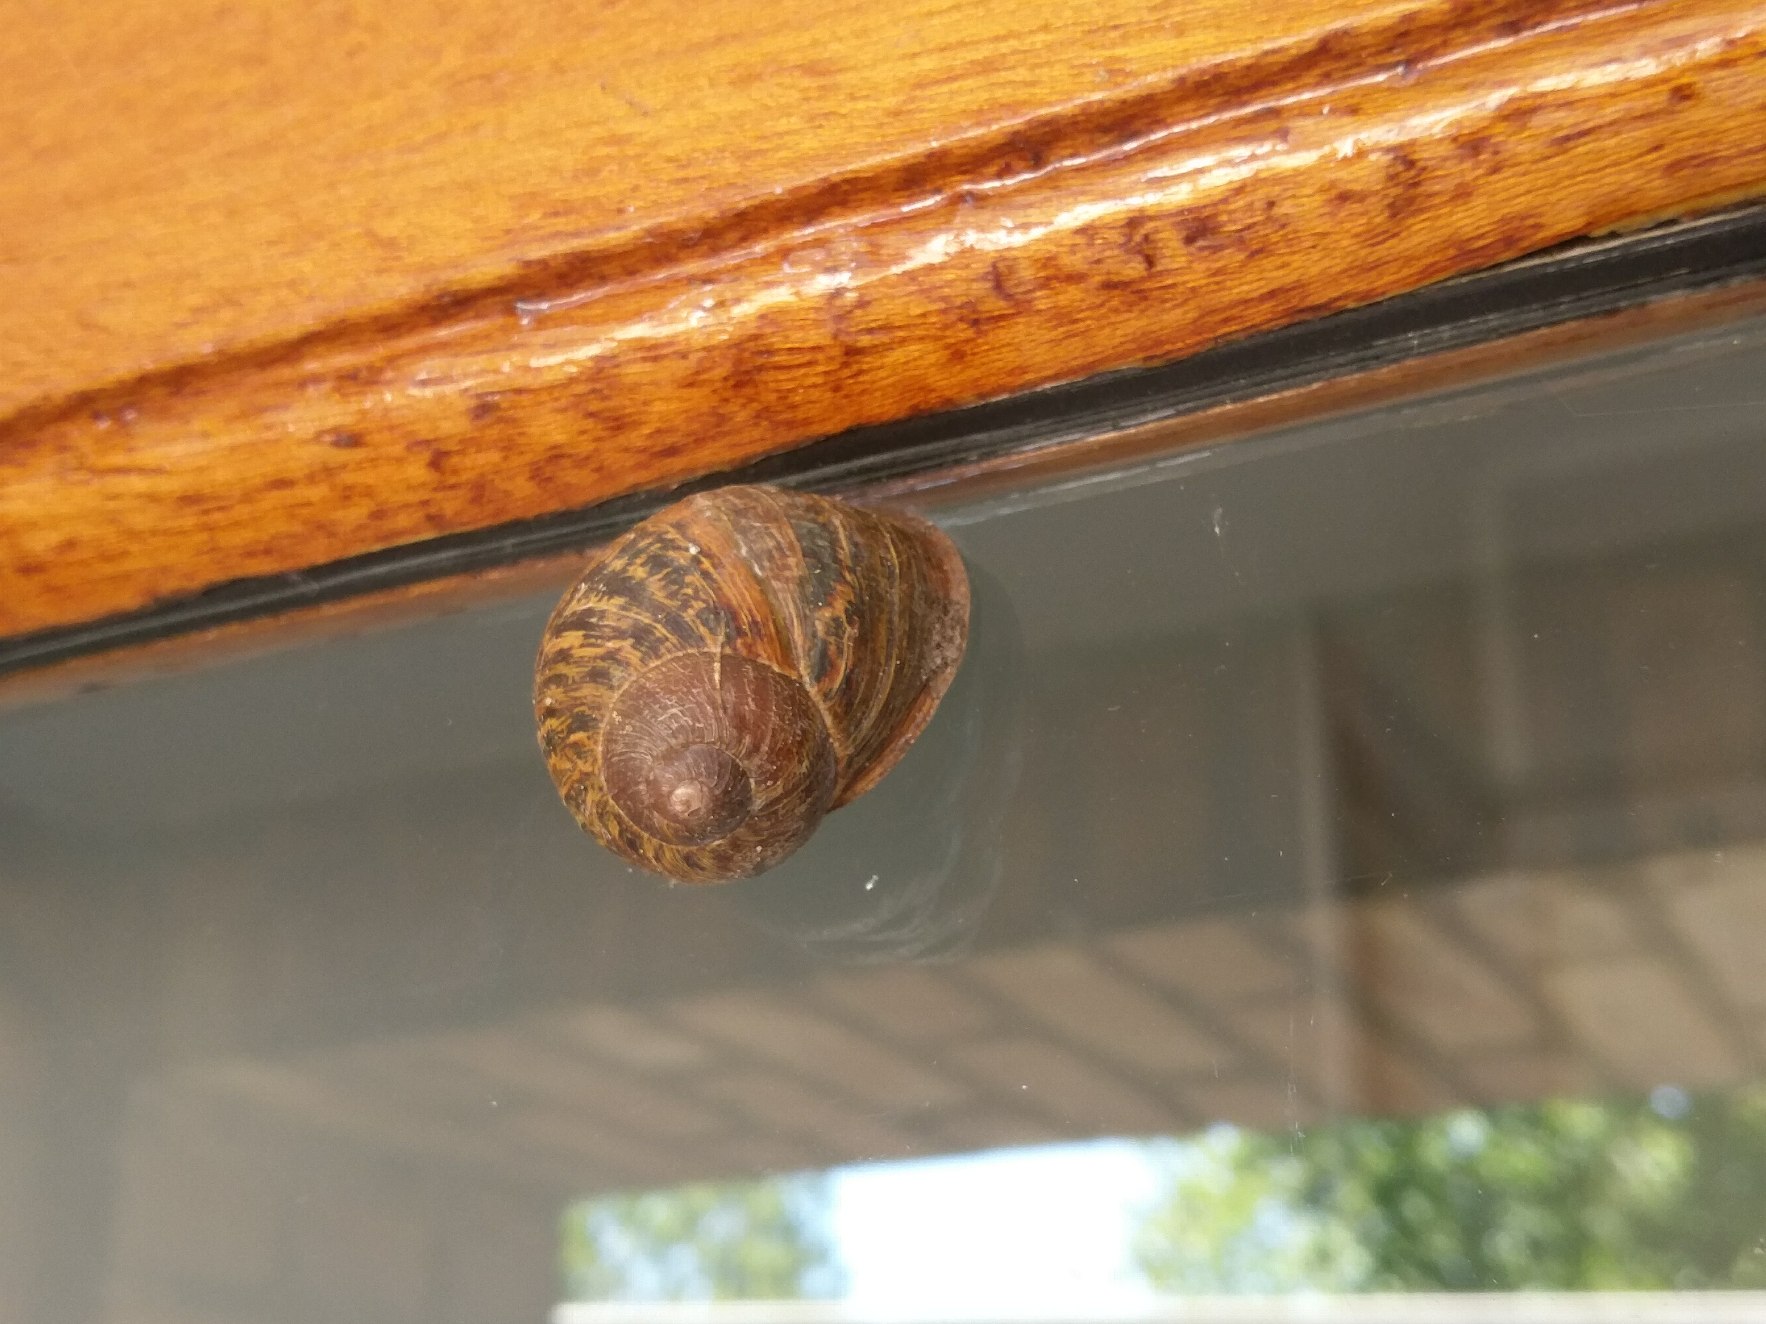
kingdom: Animalia
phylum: Mollusca
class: Gastropoda
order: Stylommatophora
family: Helicidae
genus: Cornu
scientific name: Cornu aspersum
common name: Plettet voldsnegl
